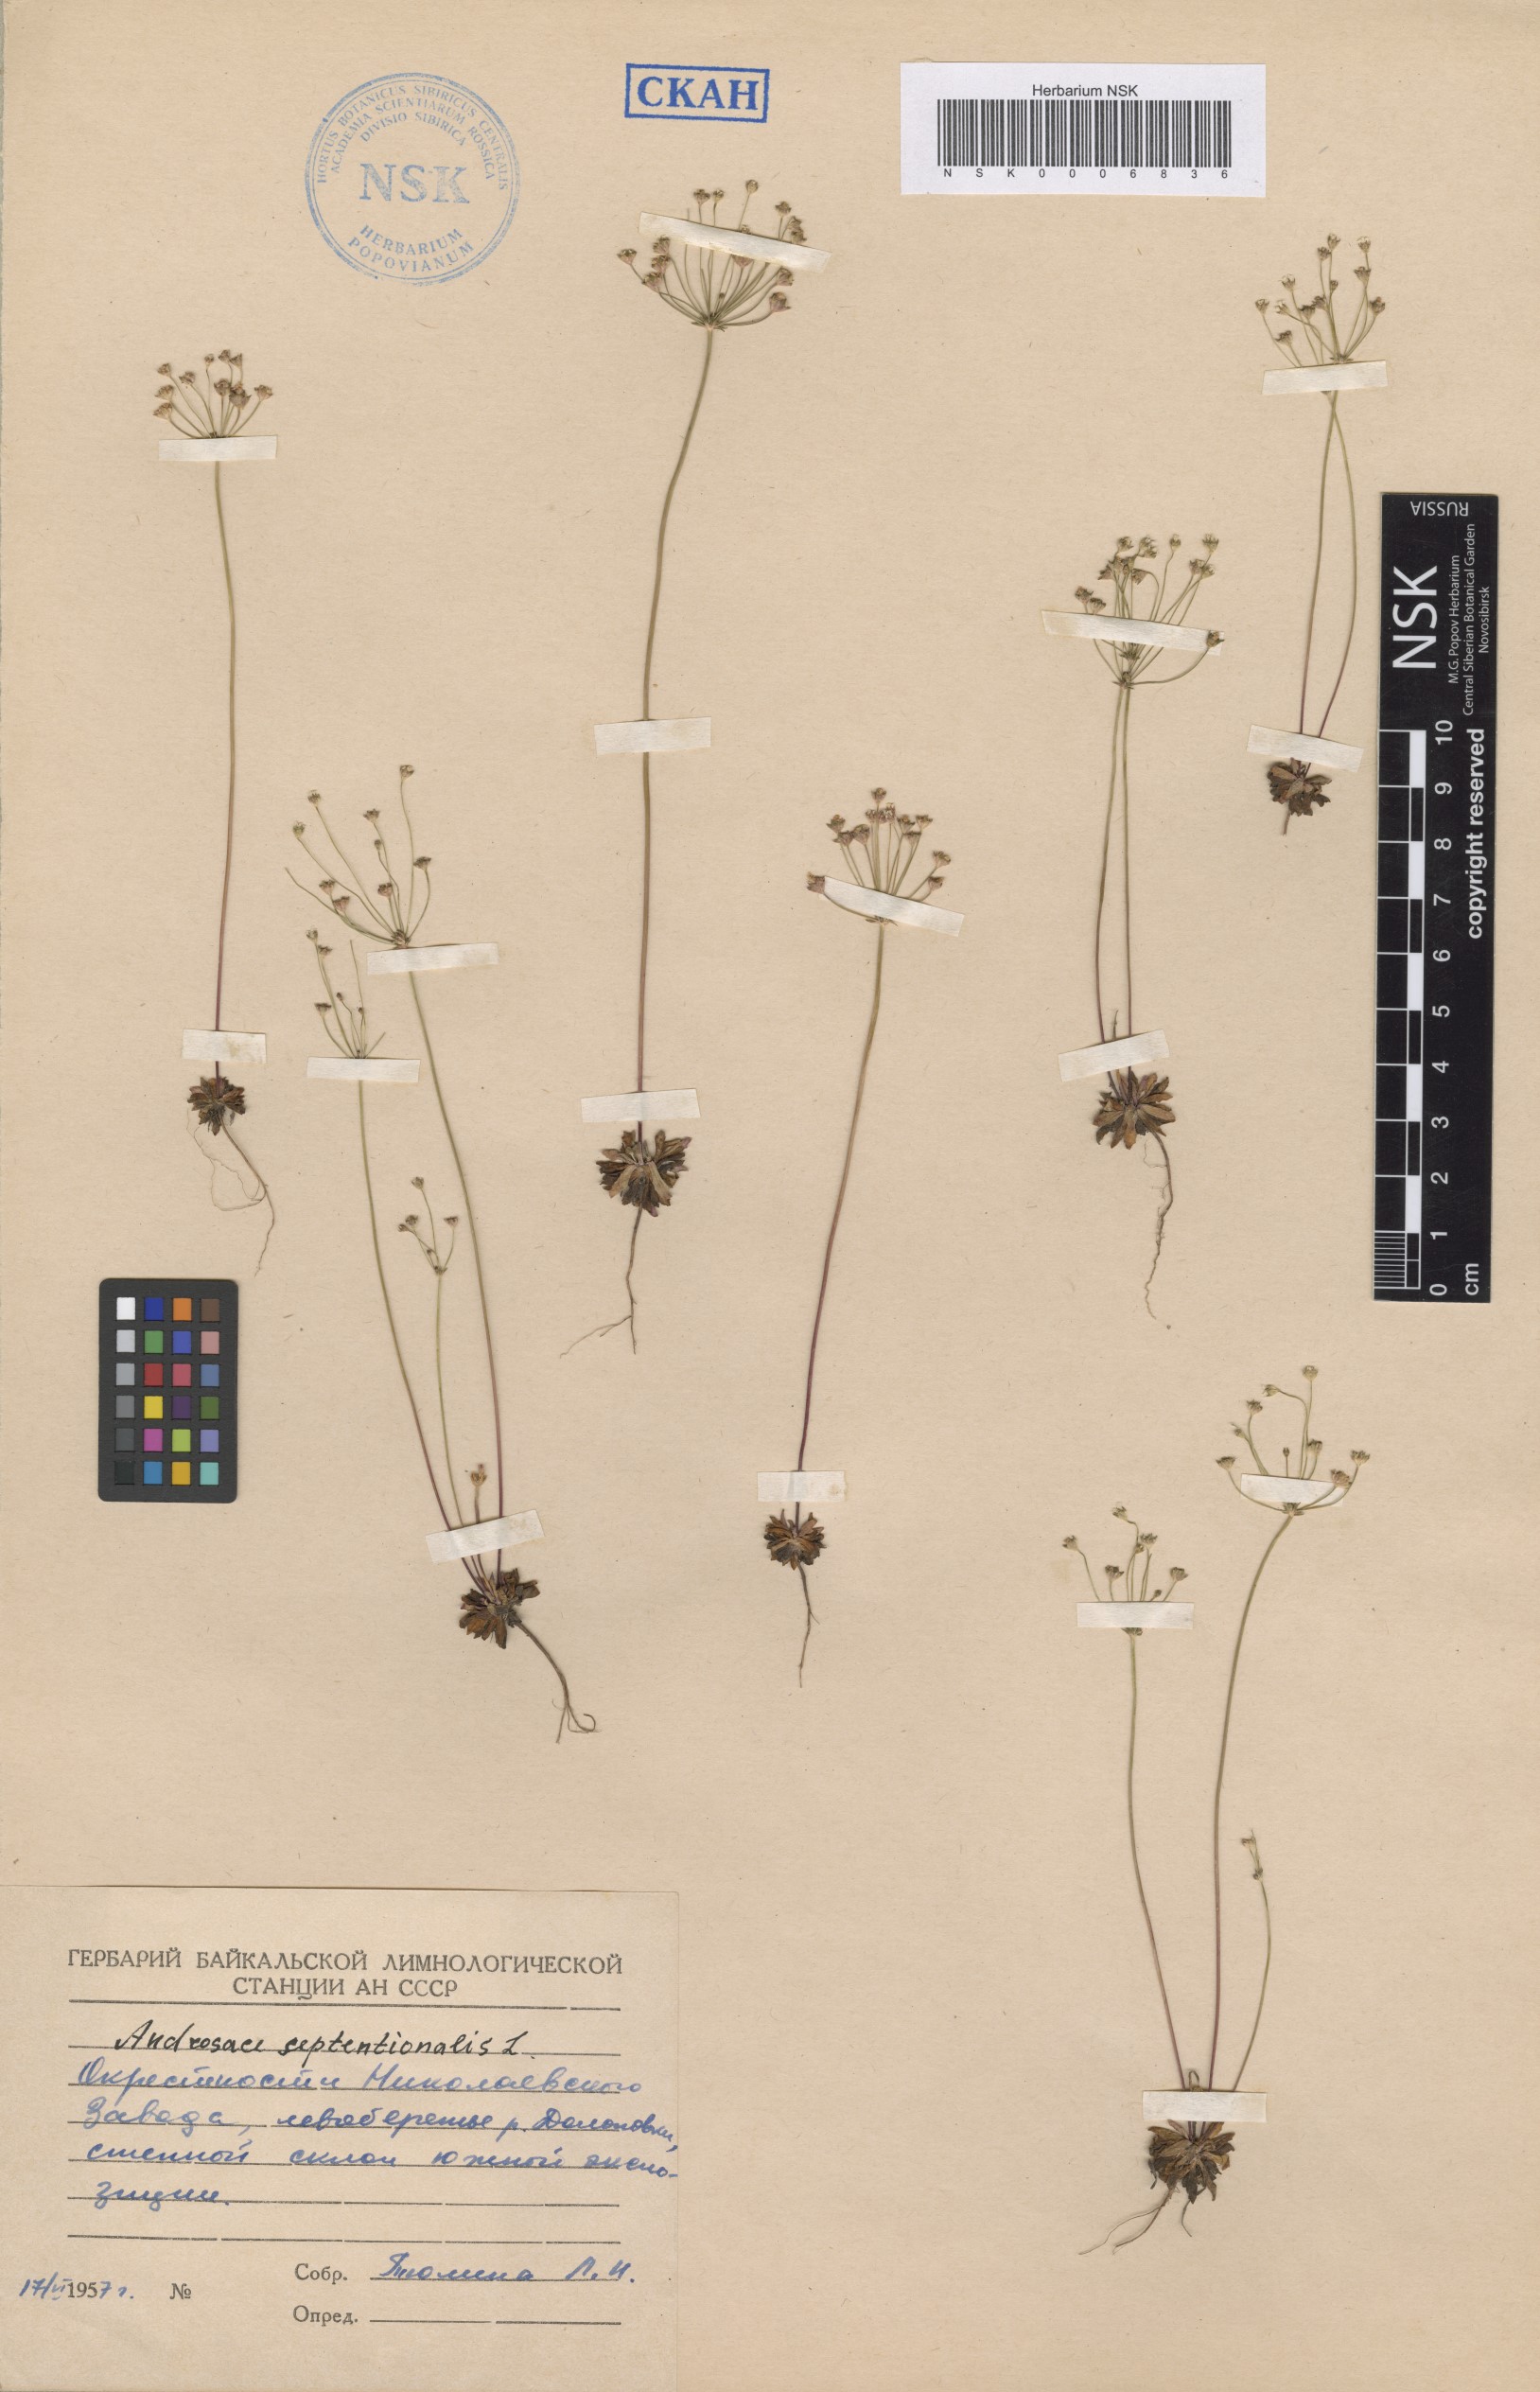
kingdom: Plantae
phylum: Tracheophyta
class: Magnoliopsida
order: Ericales
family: Primulaceae
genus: Androsace
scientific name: Androsace septentrionalis
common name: Hairy northern fairy-candelabra
